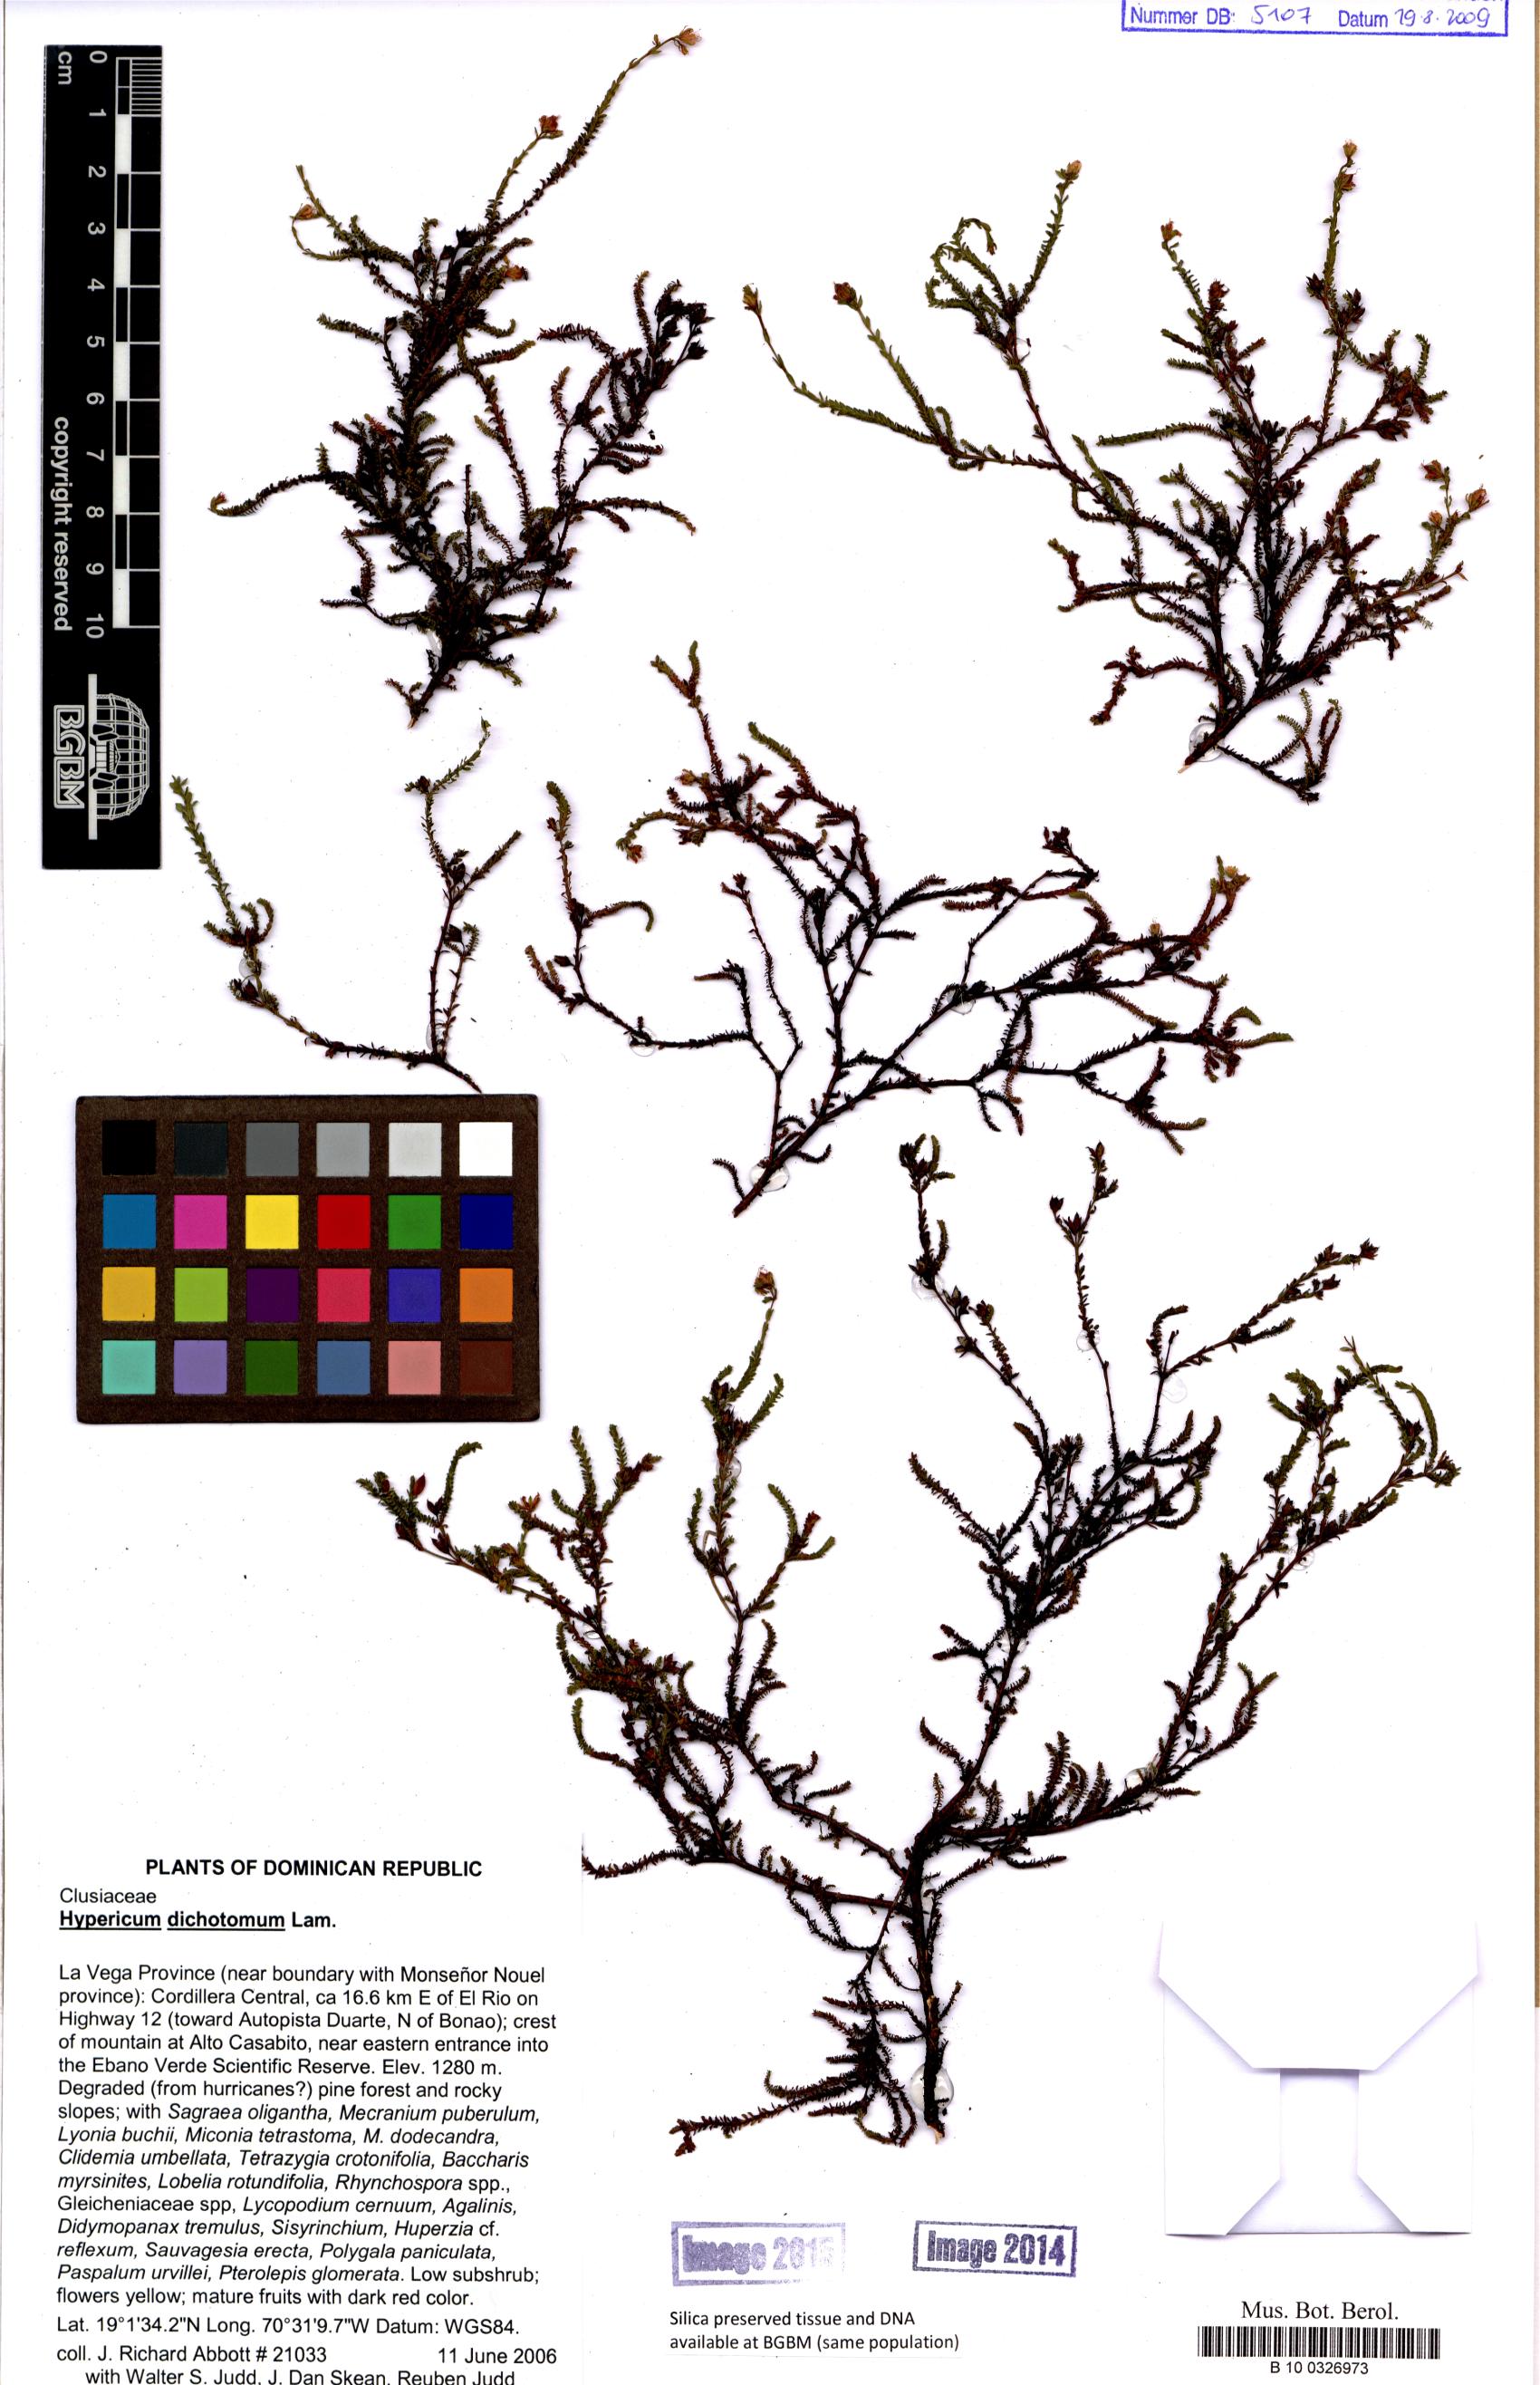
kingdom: Plantae
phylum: Tracheophyta
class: Magnoliopsida
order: Malpighiales
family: Hypericaceae
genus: Hypericum
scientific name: Hypericum dichotomum
